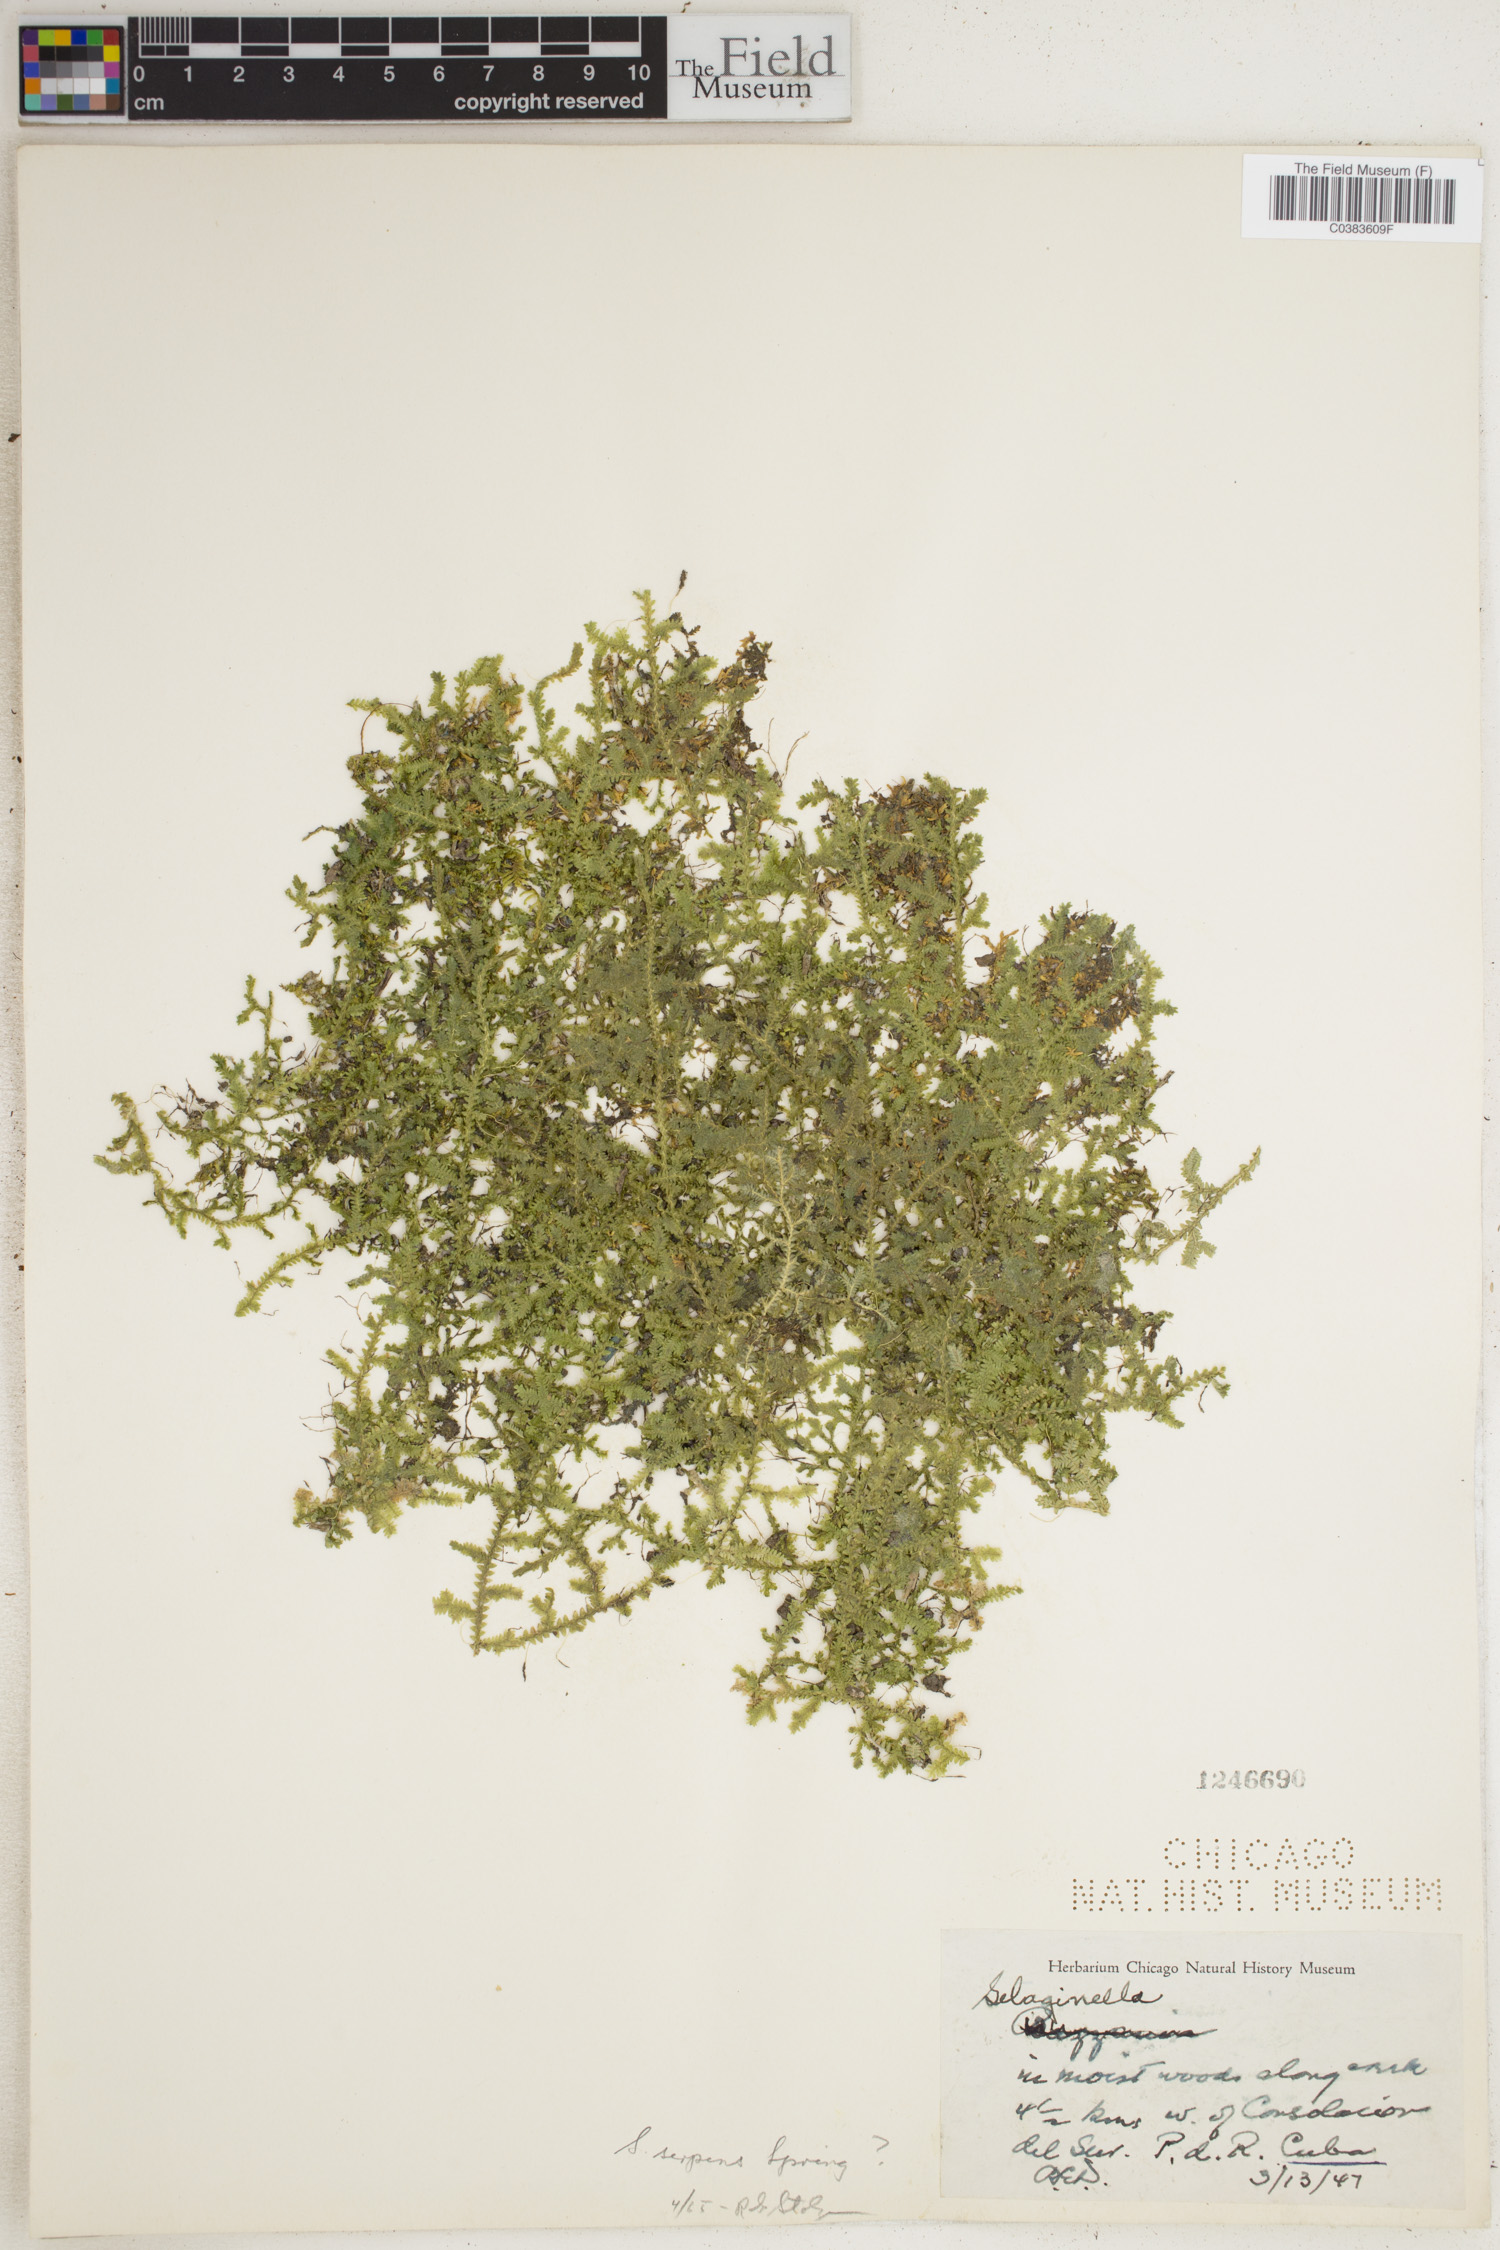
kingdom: Plantae
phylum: Tracheophyta
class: Lycopodiopsida
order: Selaginellales
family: Selaginellaceae
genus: Selaginella
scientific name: Selaginella
